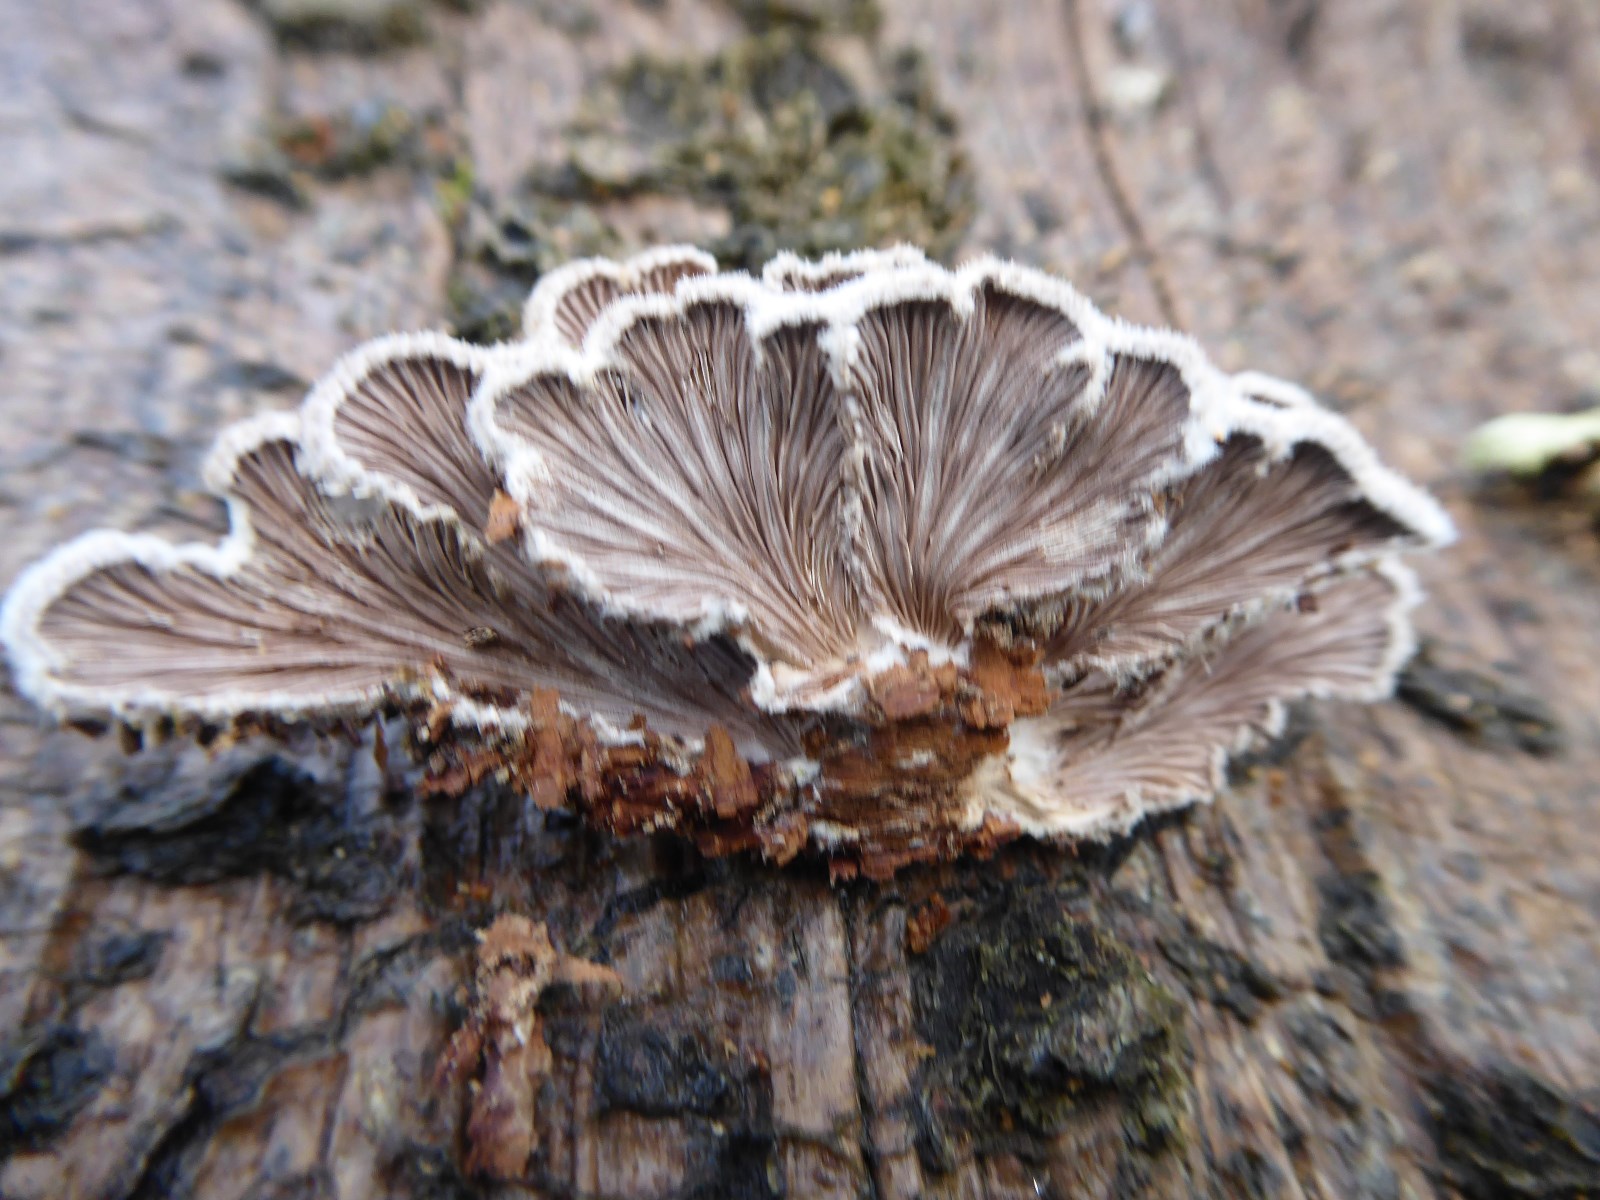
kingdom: Fungi
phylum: Basidiomycota
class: Agaricomycetes
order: Agaricales
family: Schizophyllaceae
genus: Schizophyllum
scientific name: Schizophyllum commune
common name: kløvblad
